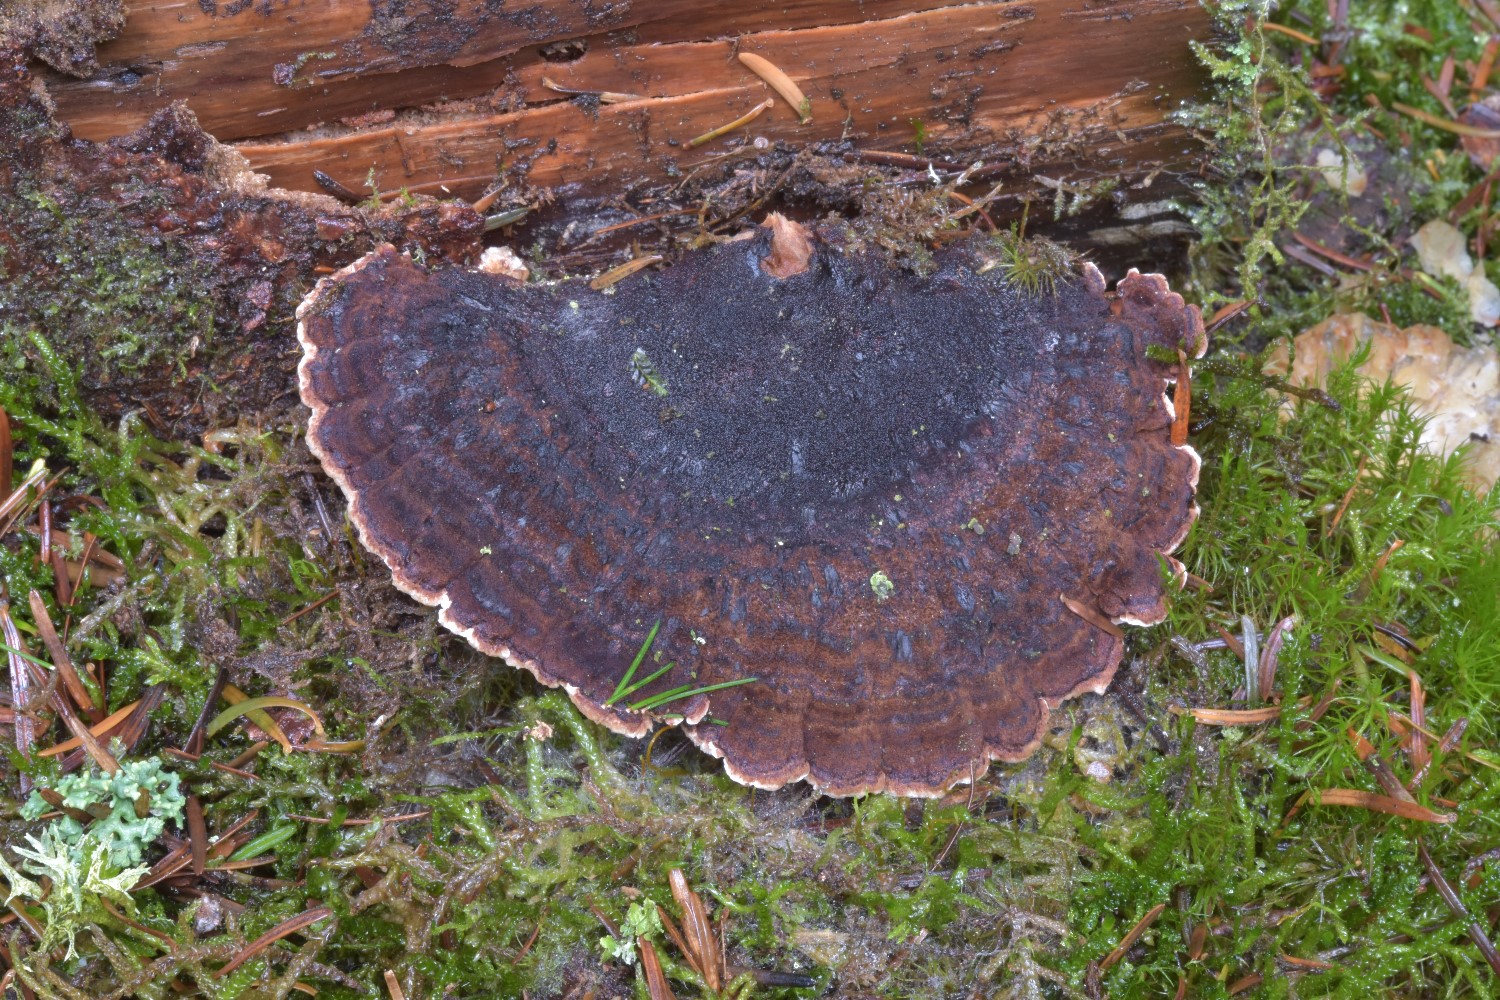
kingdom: Fungi
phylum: Basidiomycota
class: Agaricomycetes
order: Polyporales
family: Ischnodermataceae
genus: Ischnoderma
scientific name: Ischnoderma benzoinum
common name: gran-tjæreporesvamp
